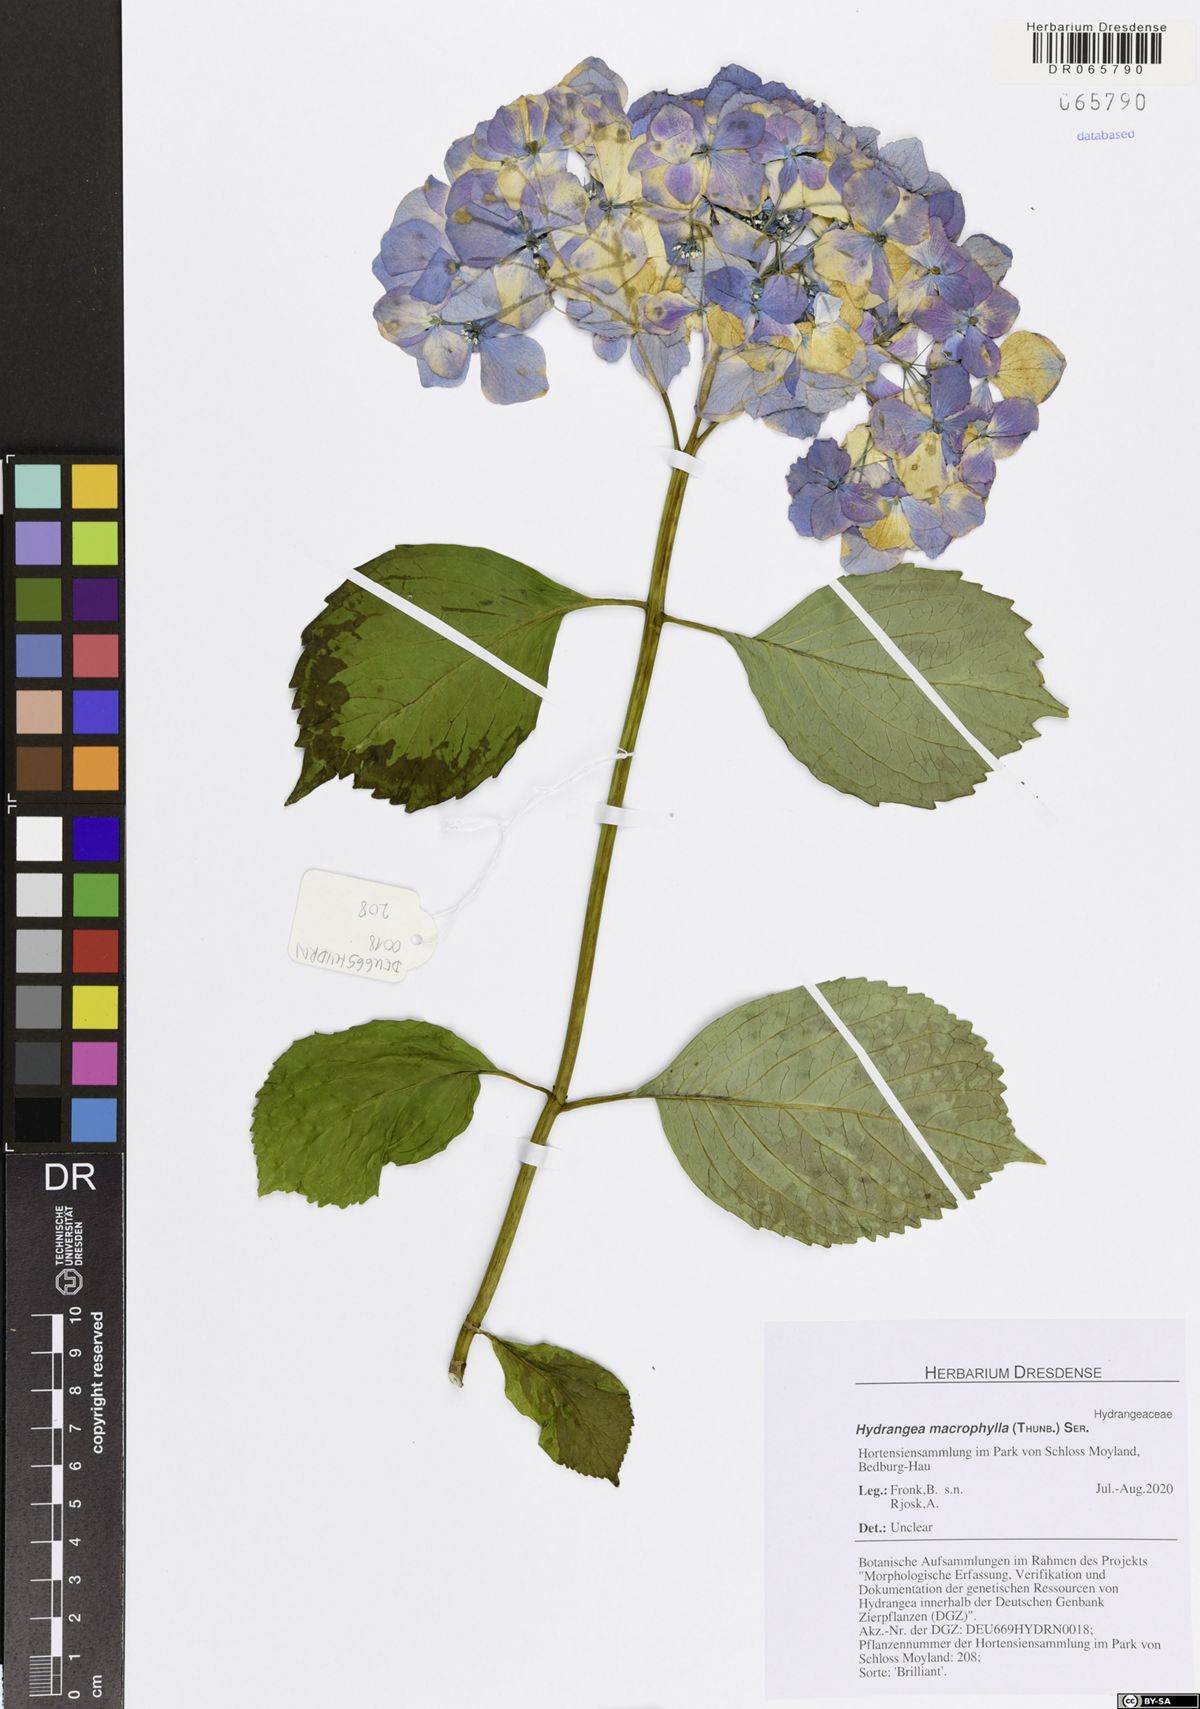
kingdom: Plantae
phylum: Tracheophyta
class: Magnoliopsida
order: Cornales
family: Hydrangeaceae
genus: Hydrangea
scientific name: Hydrangea macrophylla
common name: Hydrangea
